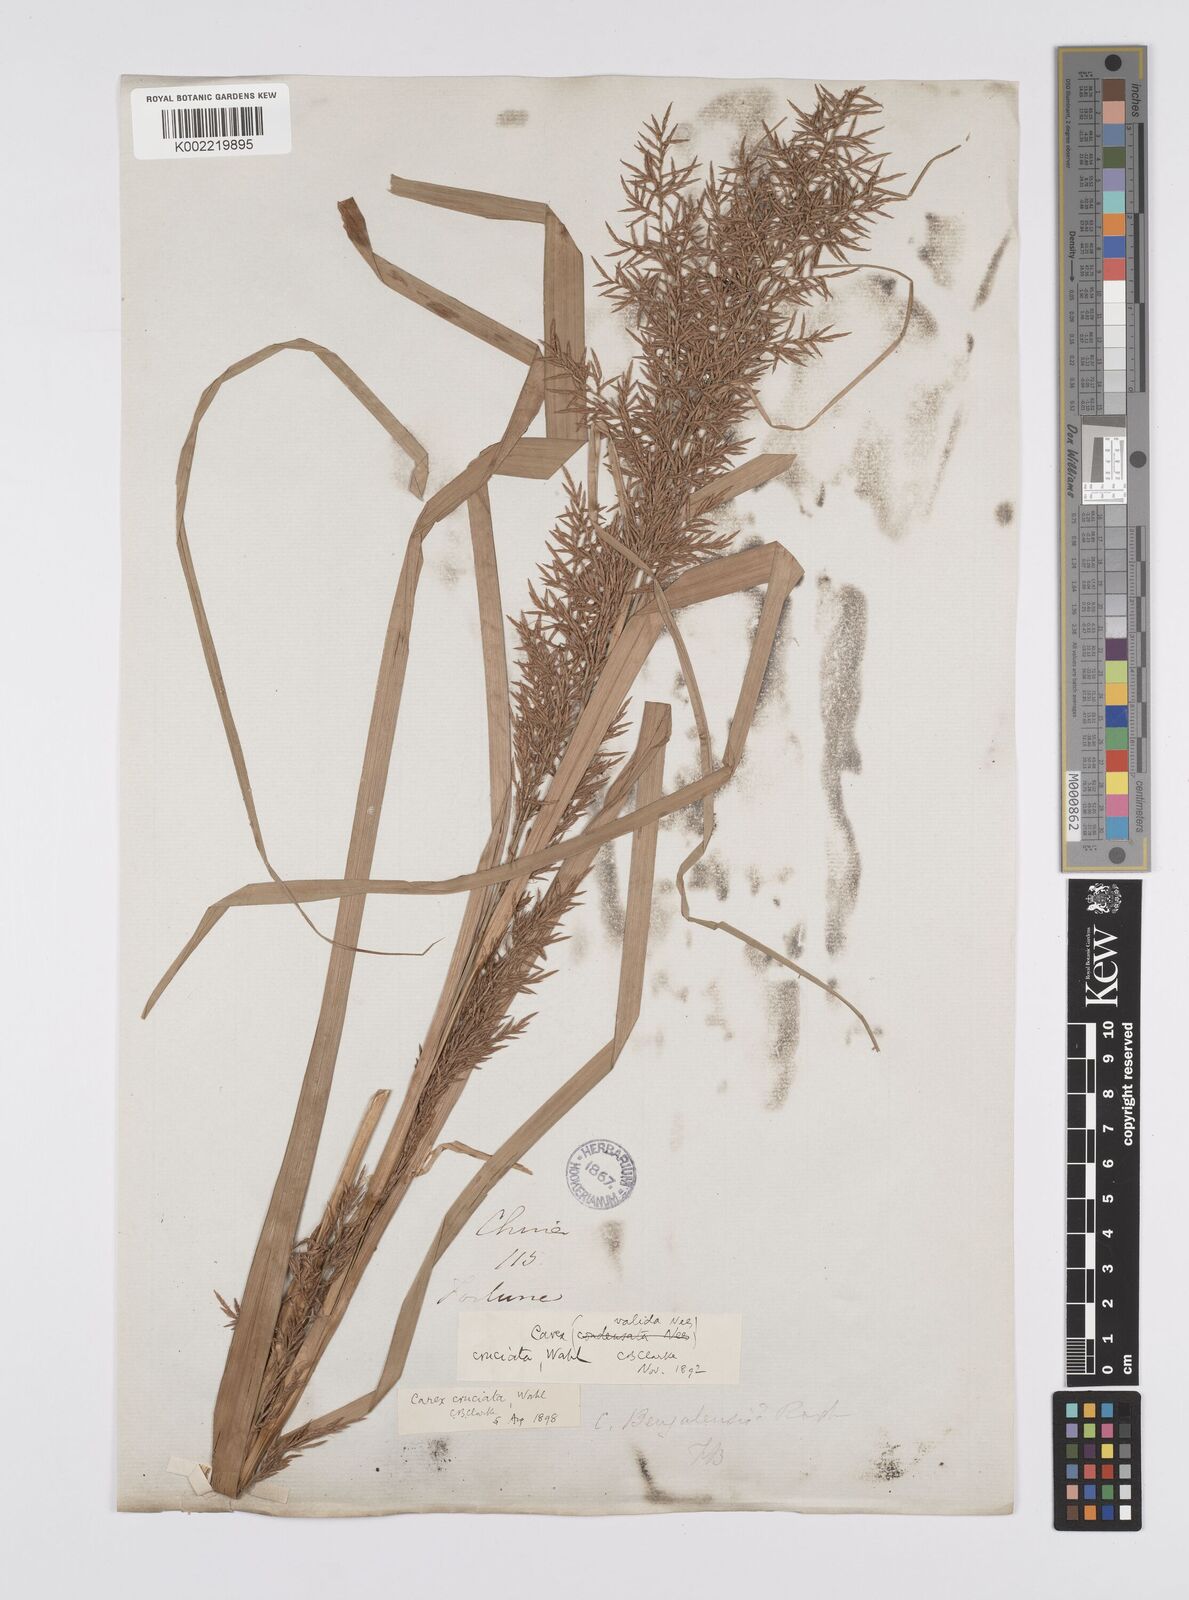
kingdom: Plantae
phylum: Tracheophyta
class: Liliopsida
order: Poales
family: Cyperaceae
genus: Carex
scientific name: Carex cruciata
